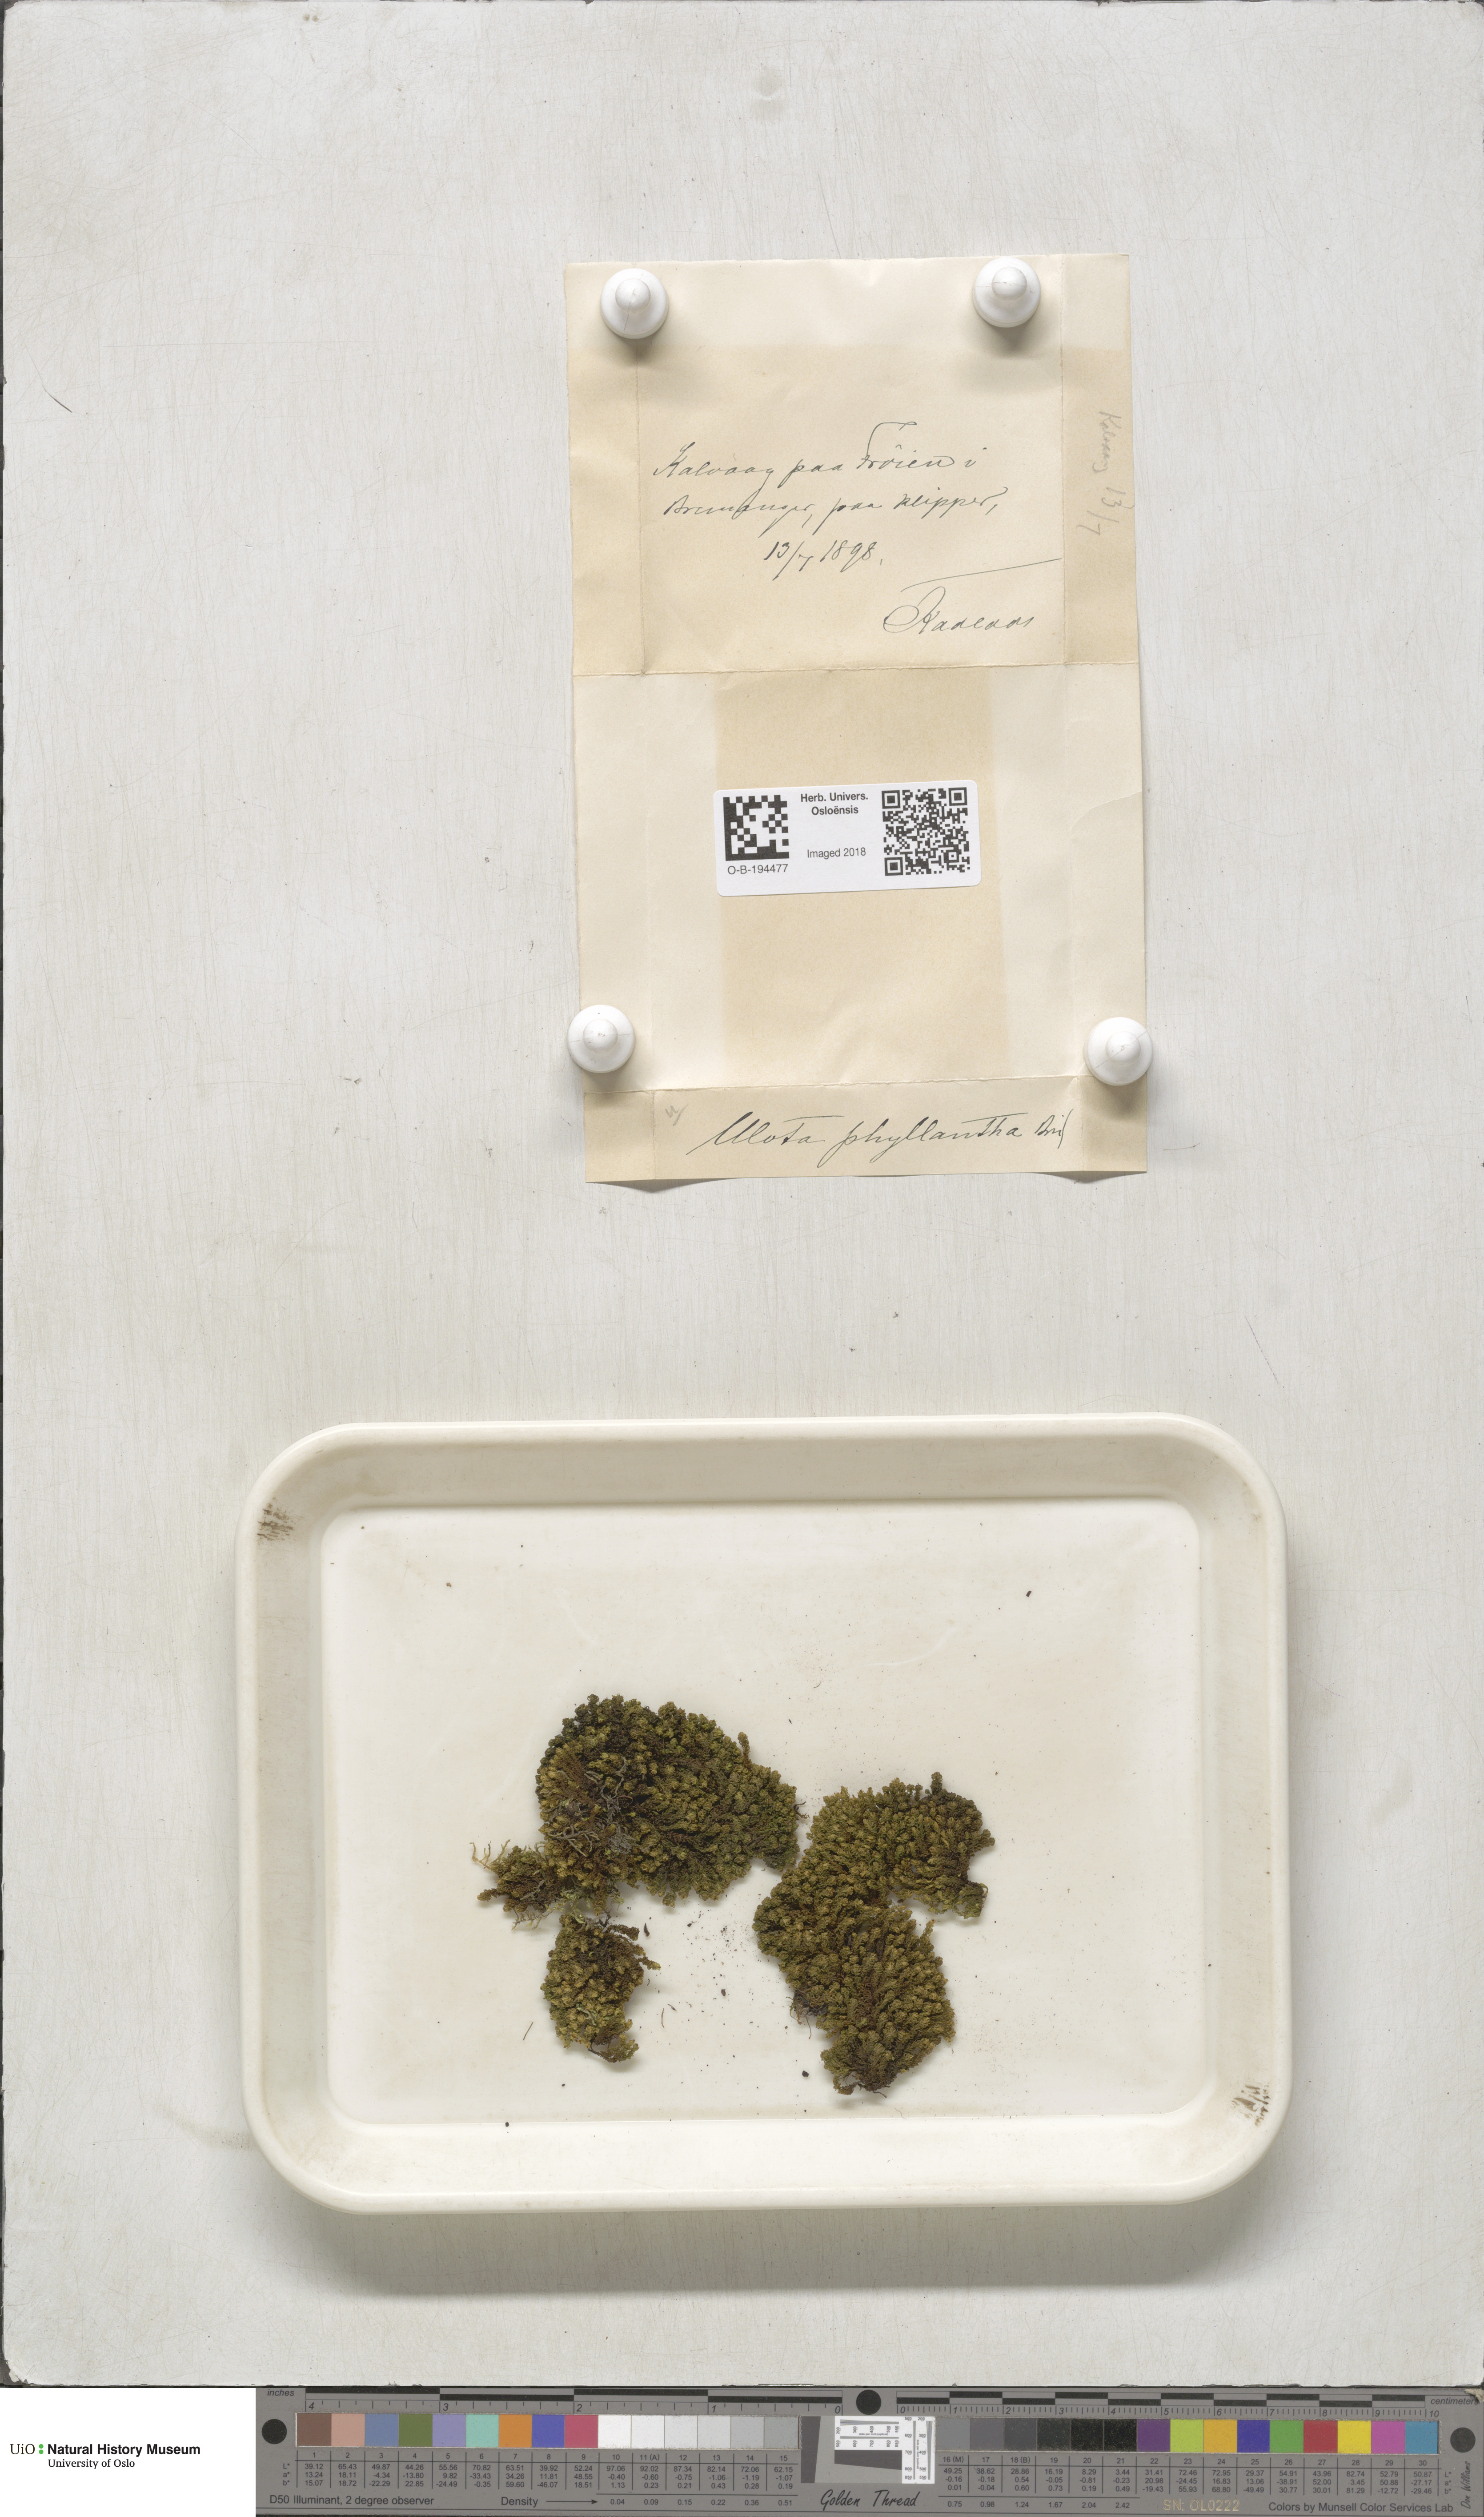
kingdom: Plantae
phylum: Bryophyta
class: Bryopsida
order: Orthotrichales
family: Orthotrichaceae
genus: Plenogemma
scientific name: Plenogemma phyllantha
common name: Frizzled pincushion
